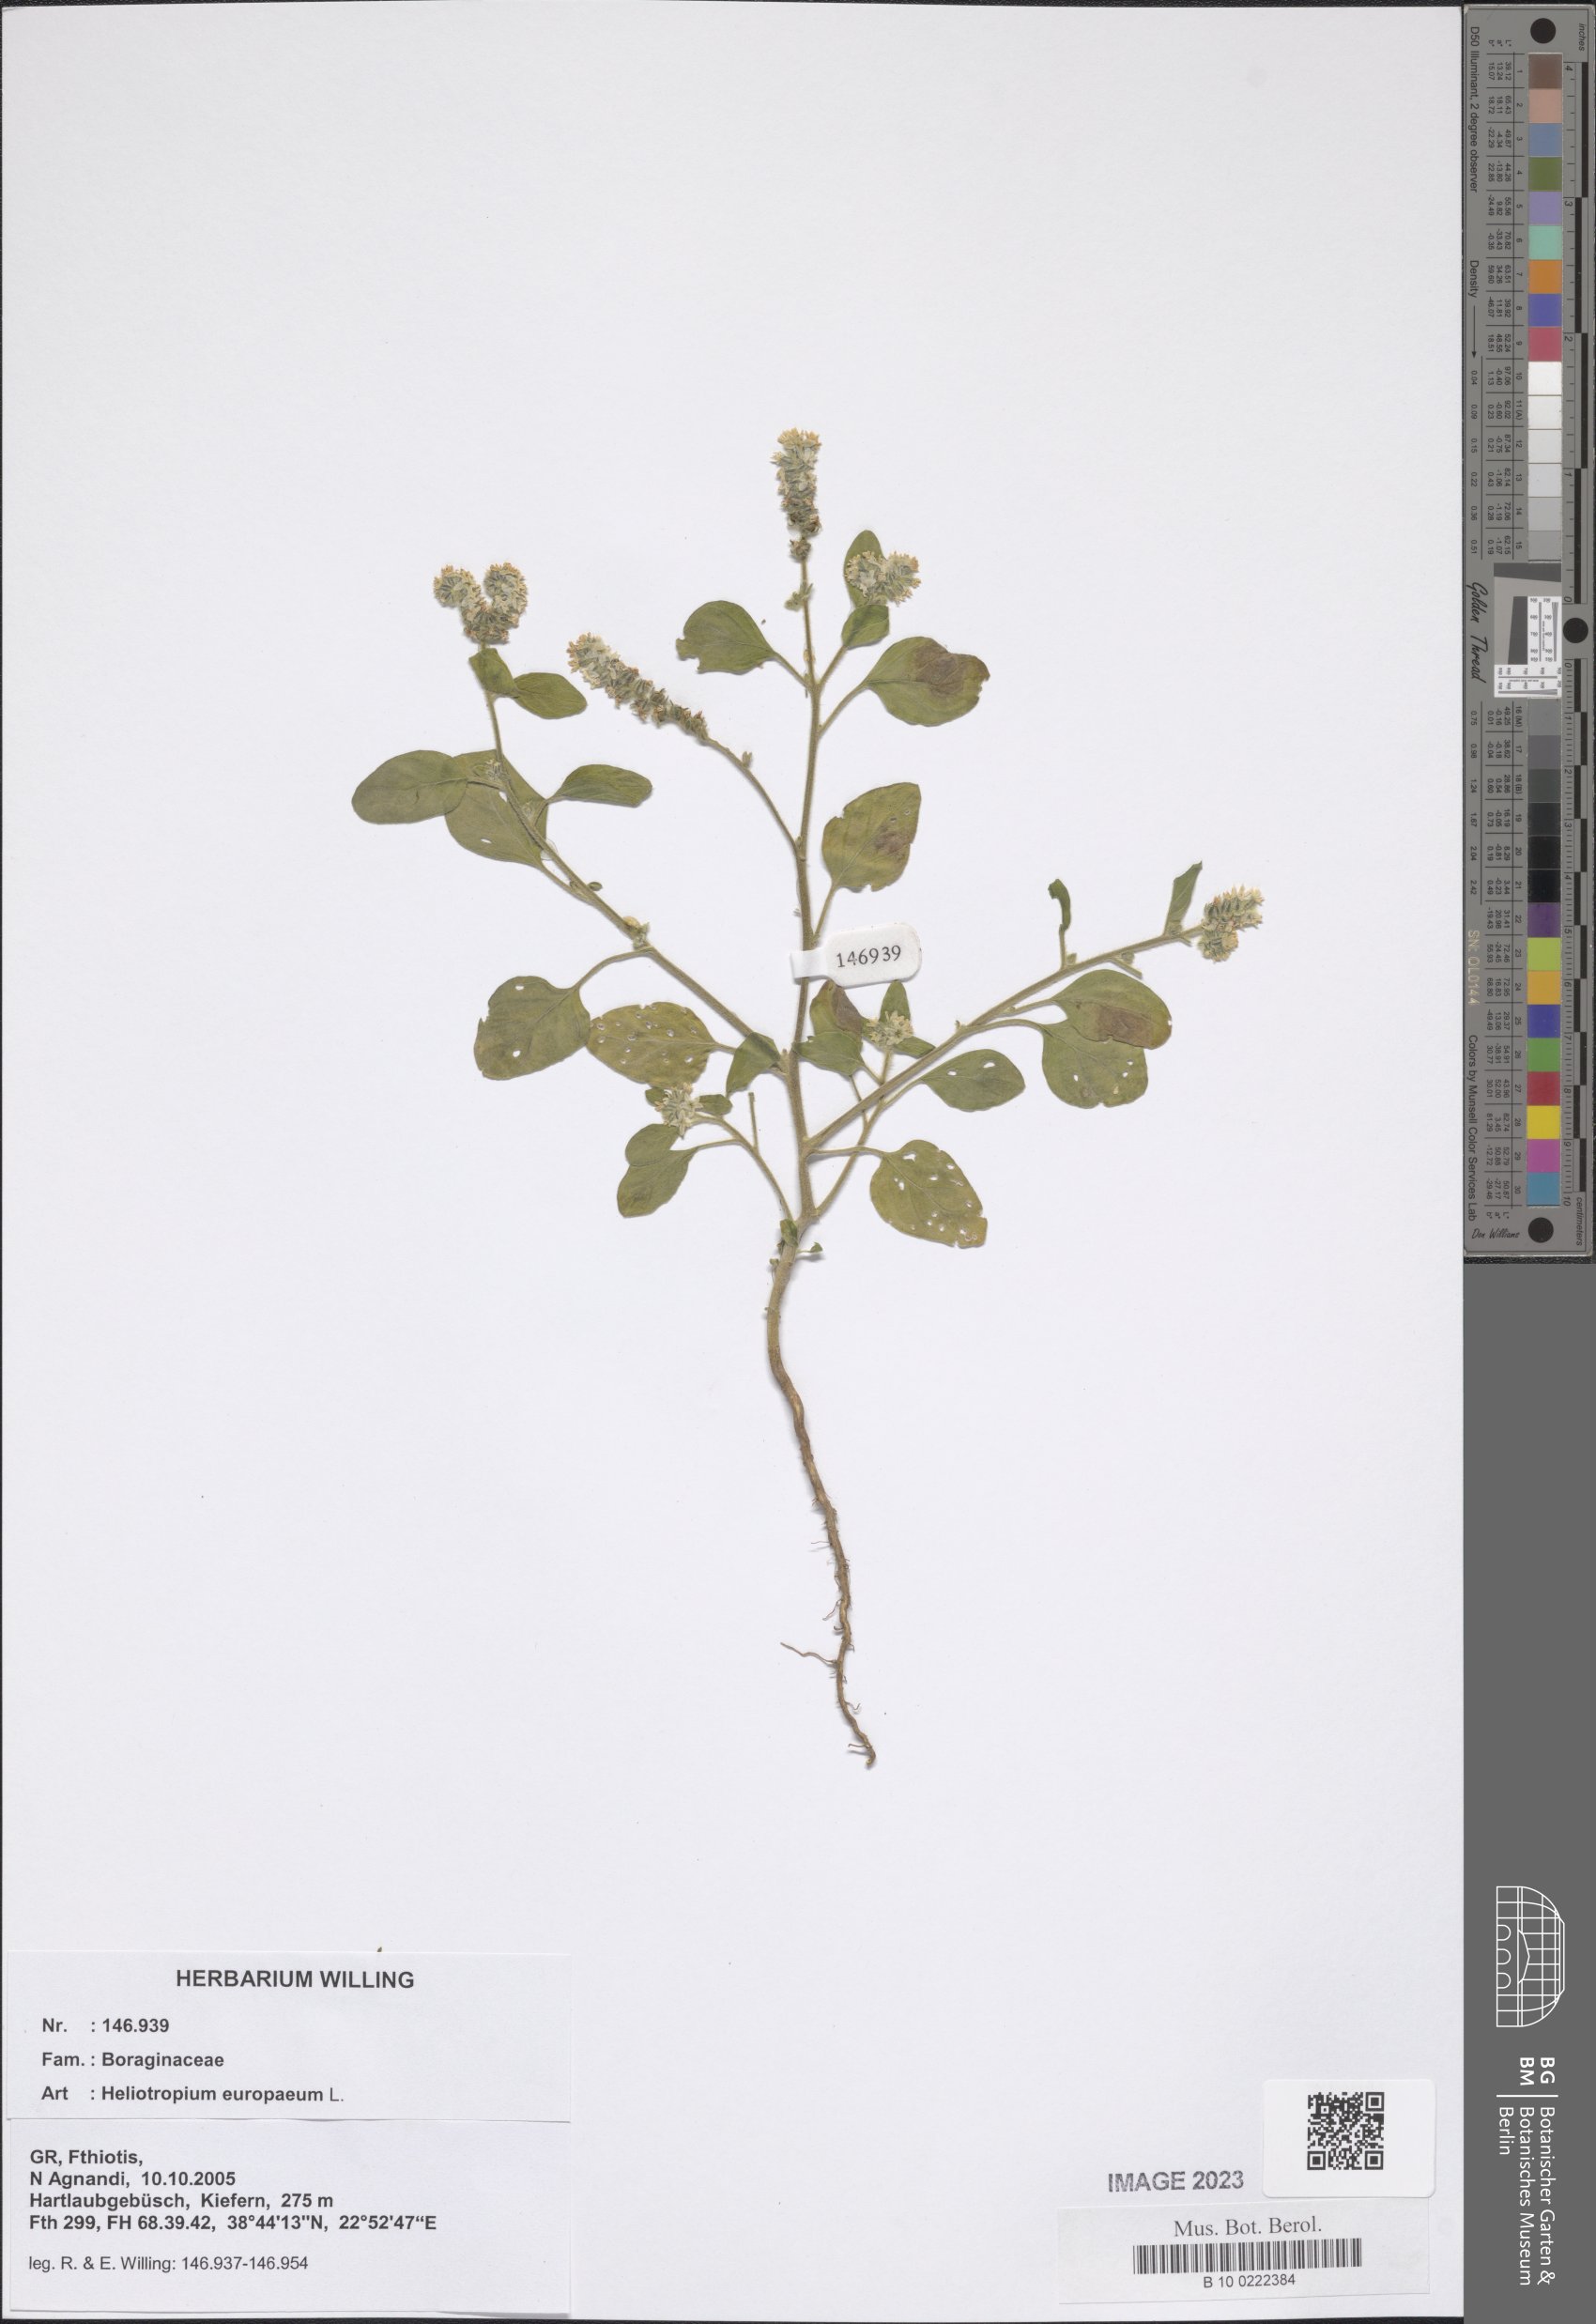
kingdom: Plantae
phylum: Tracheophyta
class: Magnoliopsida
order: Boraginales
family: Heliotropiaceae
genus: Heliotropium
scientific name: Heliotropium europaeum
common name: European heliotrope
